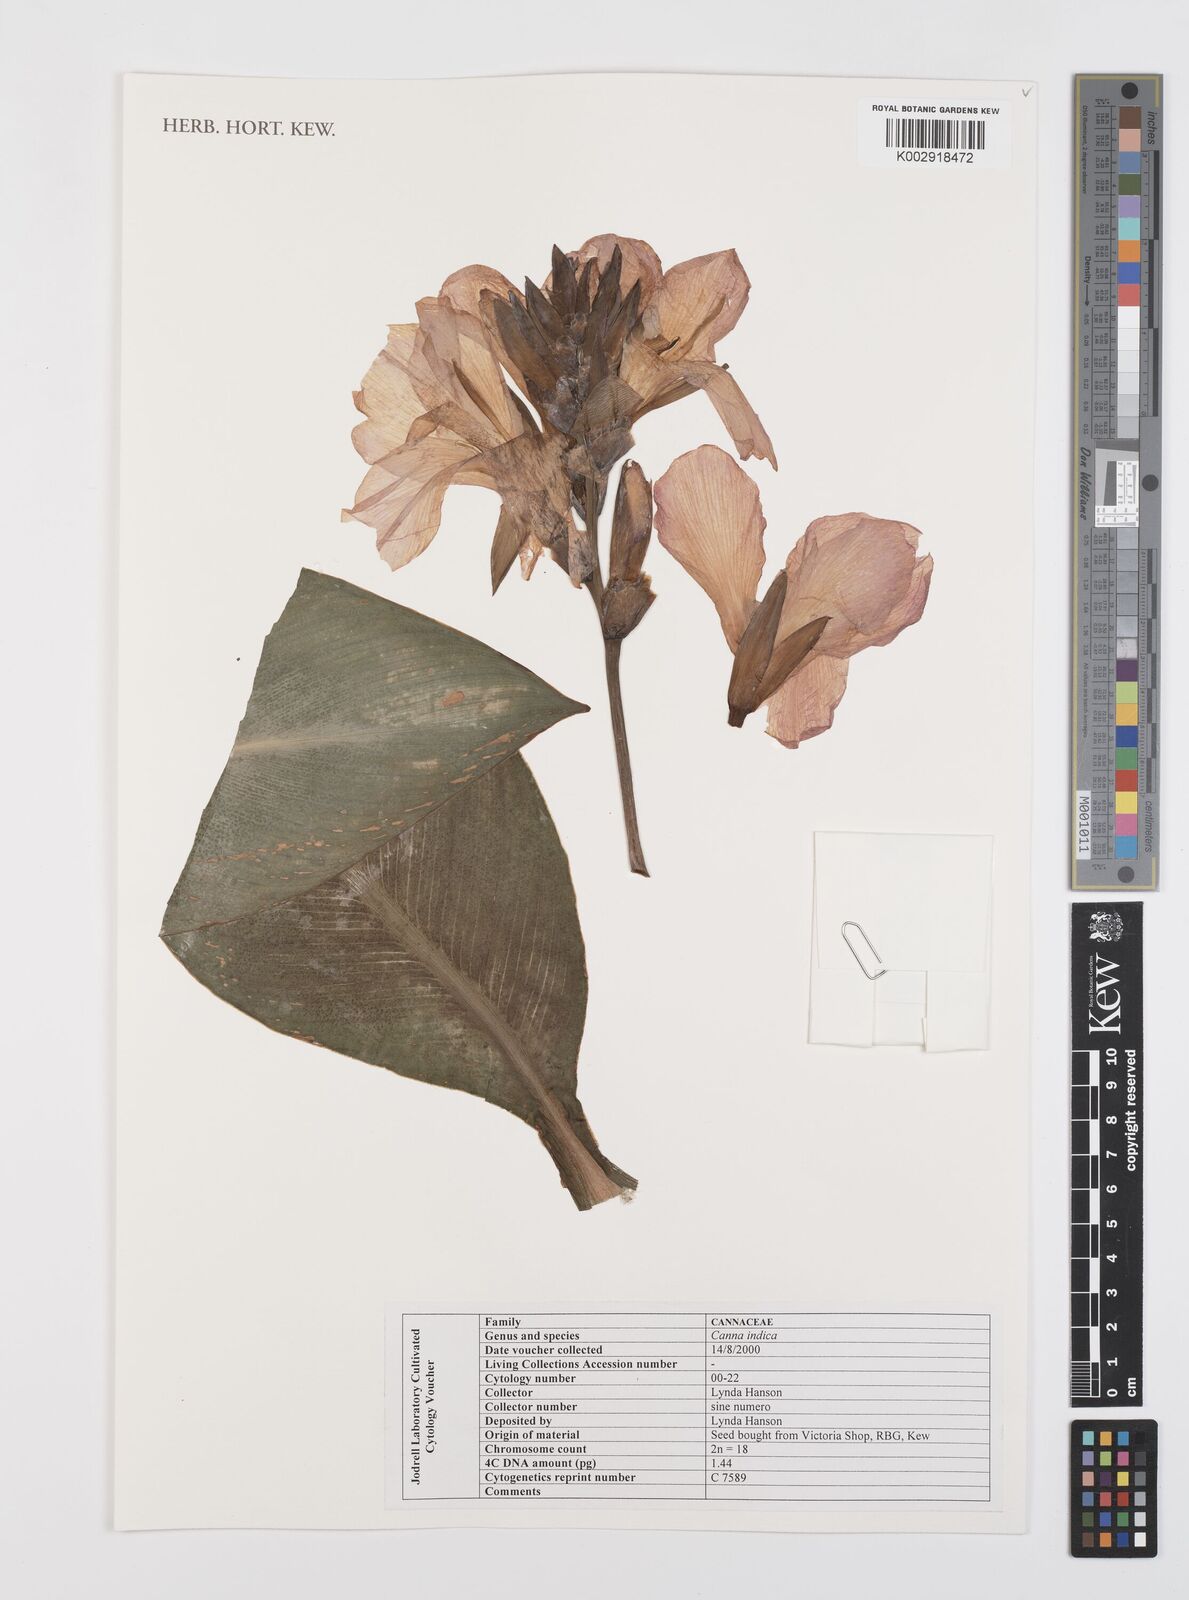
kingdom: Plantae
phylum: Tracheophyta
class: Liliopsida
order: Zingiberales
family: Cannaceae
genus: Canna
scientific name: Canna indica
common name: Indian shot
